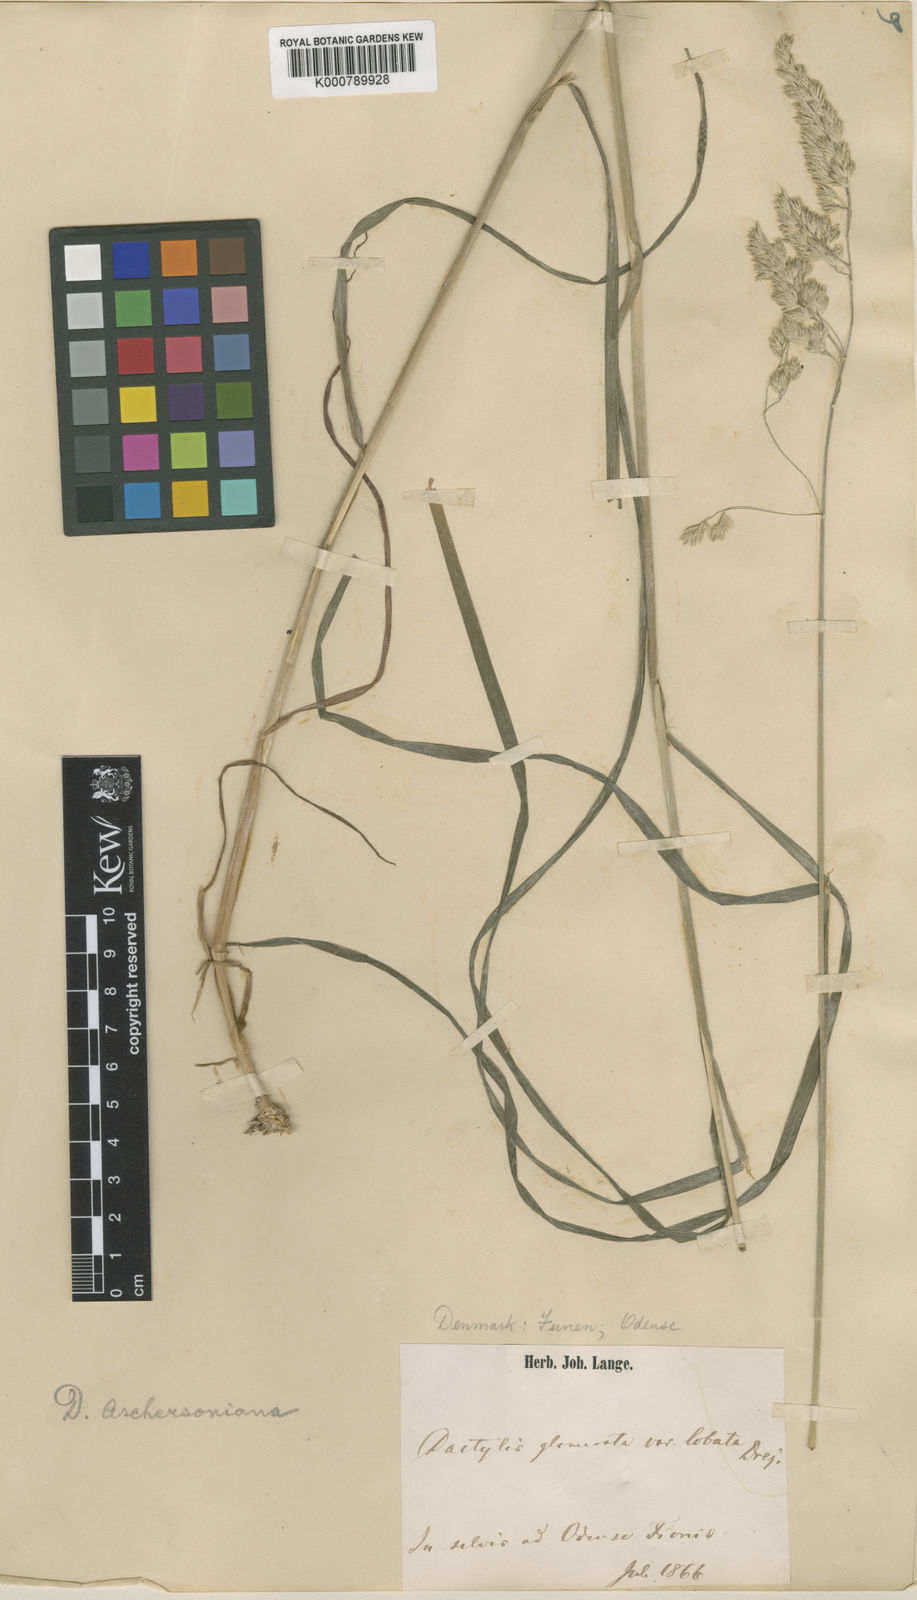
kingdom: Plantae
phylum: Tracheophyta
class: Liliopsida
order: Poales
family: Poaceae
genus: Dactylis
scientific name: Dactylis glomerata
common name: Orchardgrass
